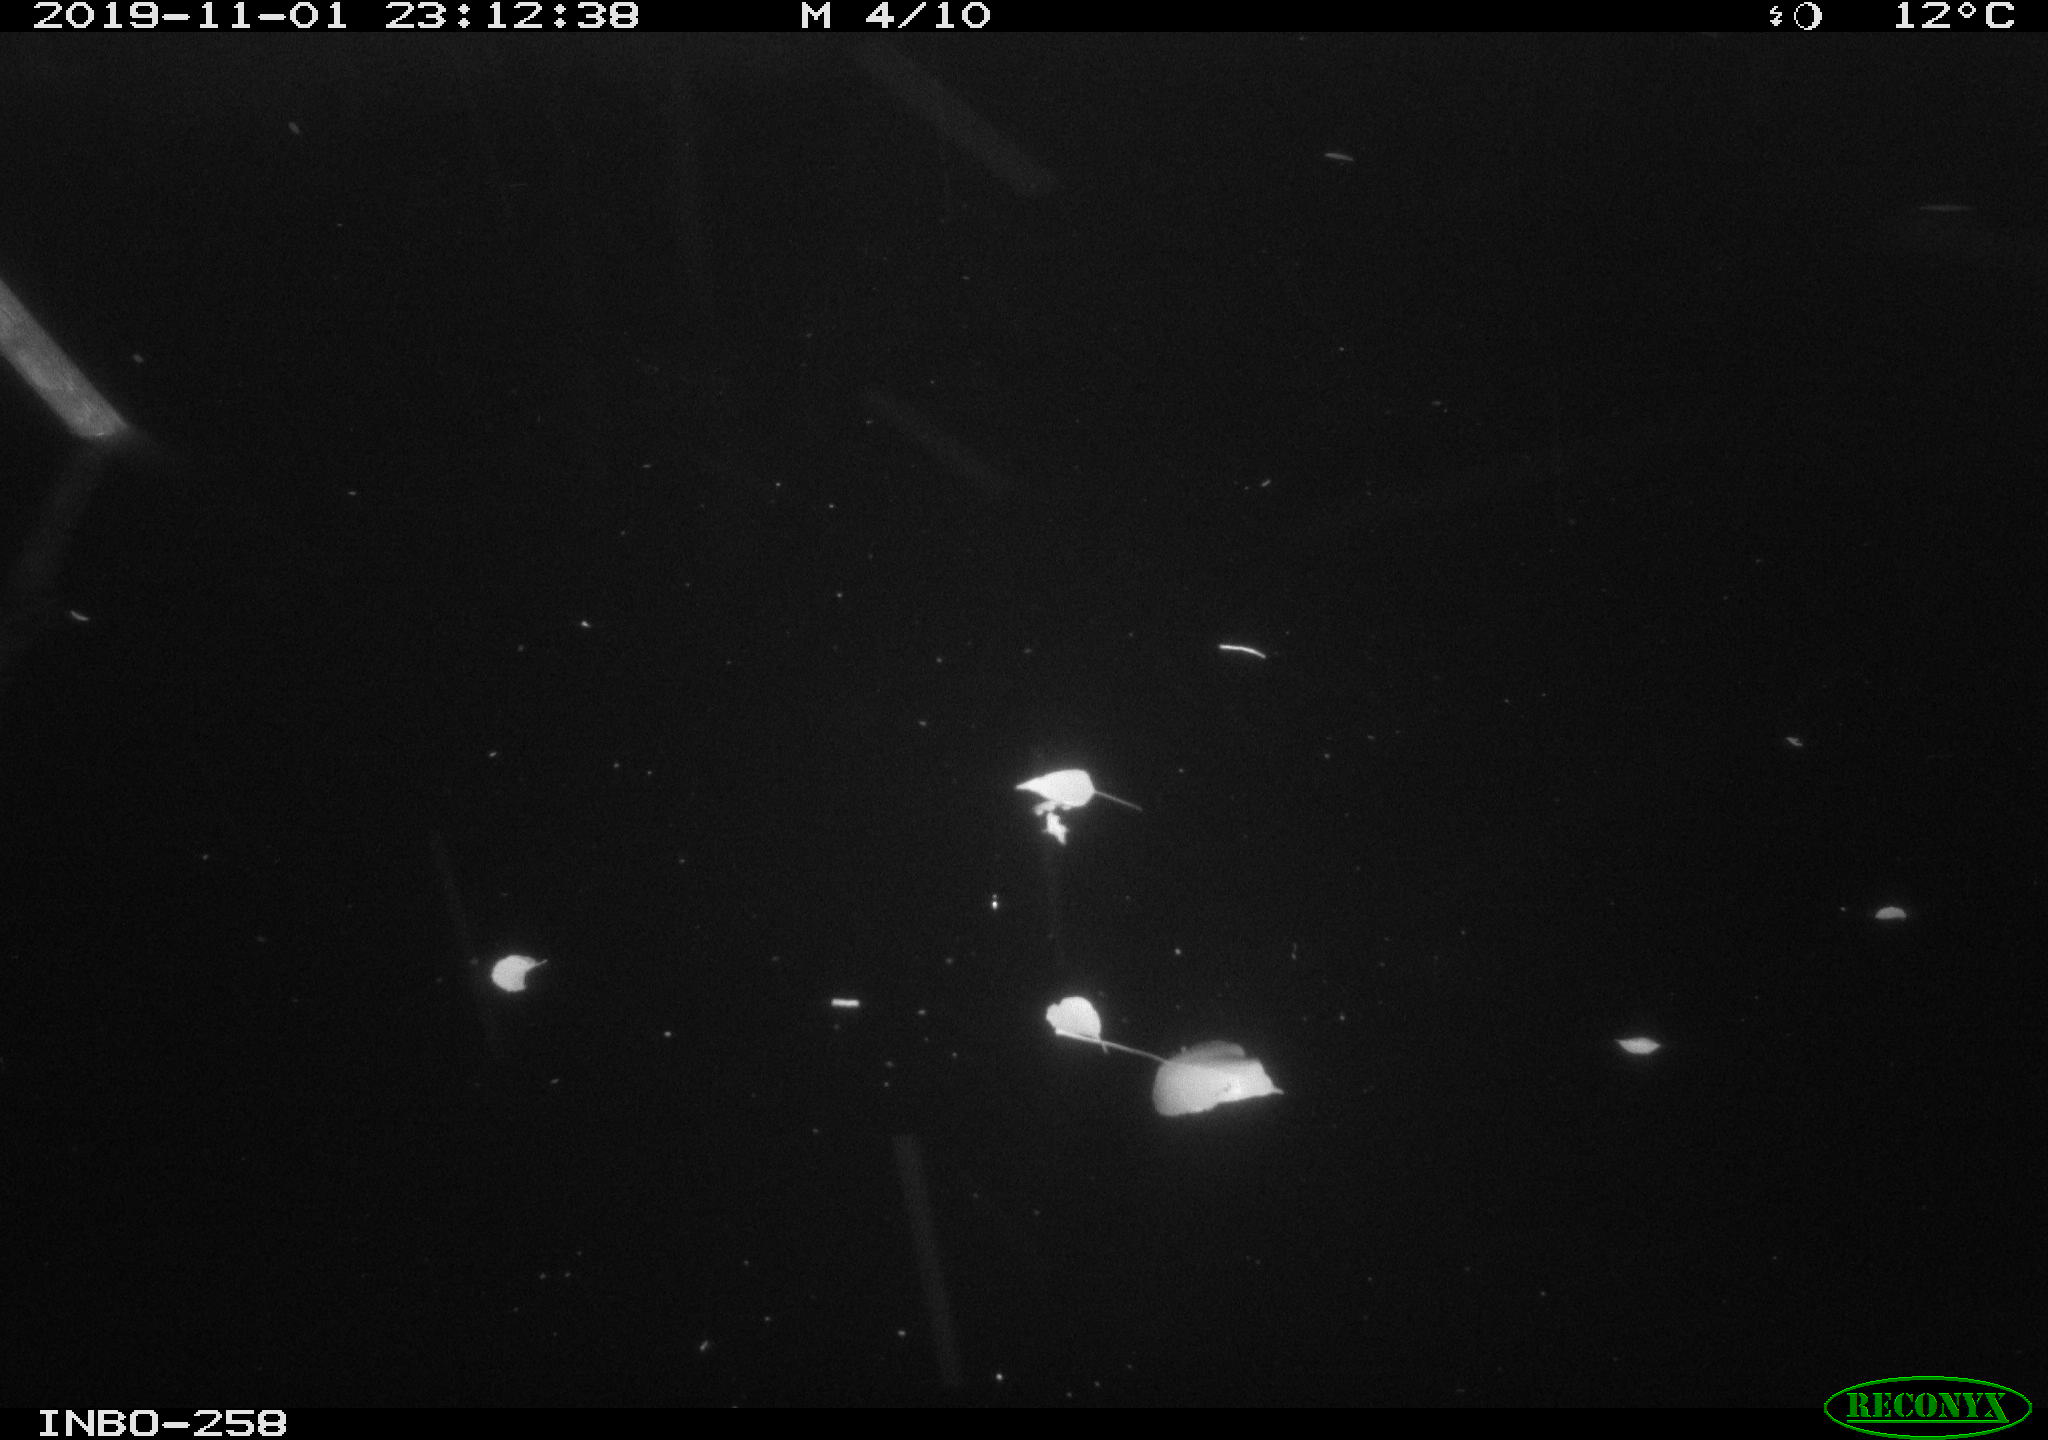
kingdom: Animalia
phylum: Chordata
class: Mammalia
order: Rodentia
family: Muridae
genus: Rattus
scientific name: Rattus norvegicus
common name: Brown rat
